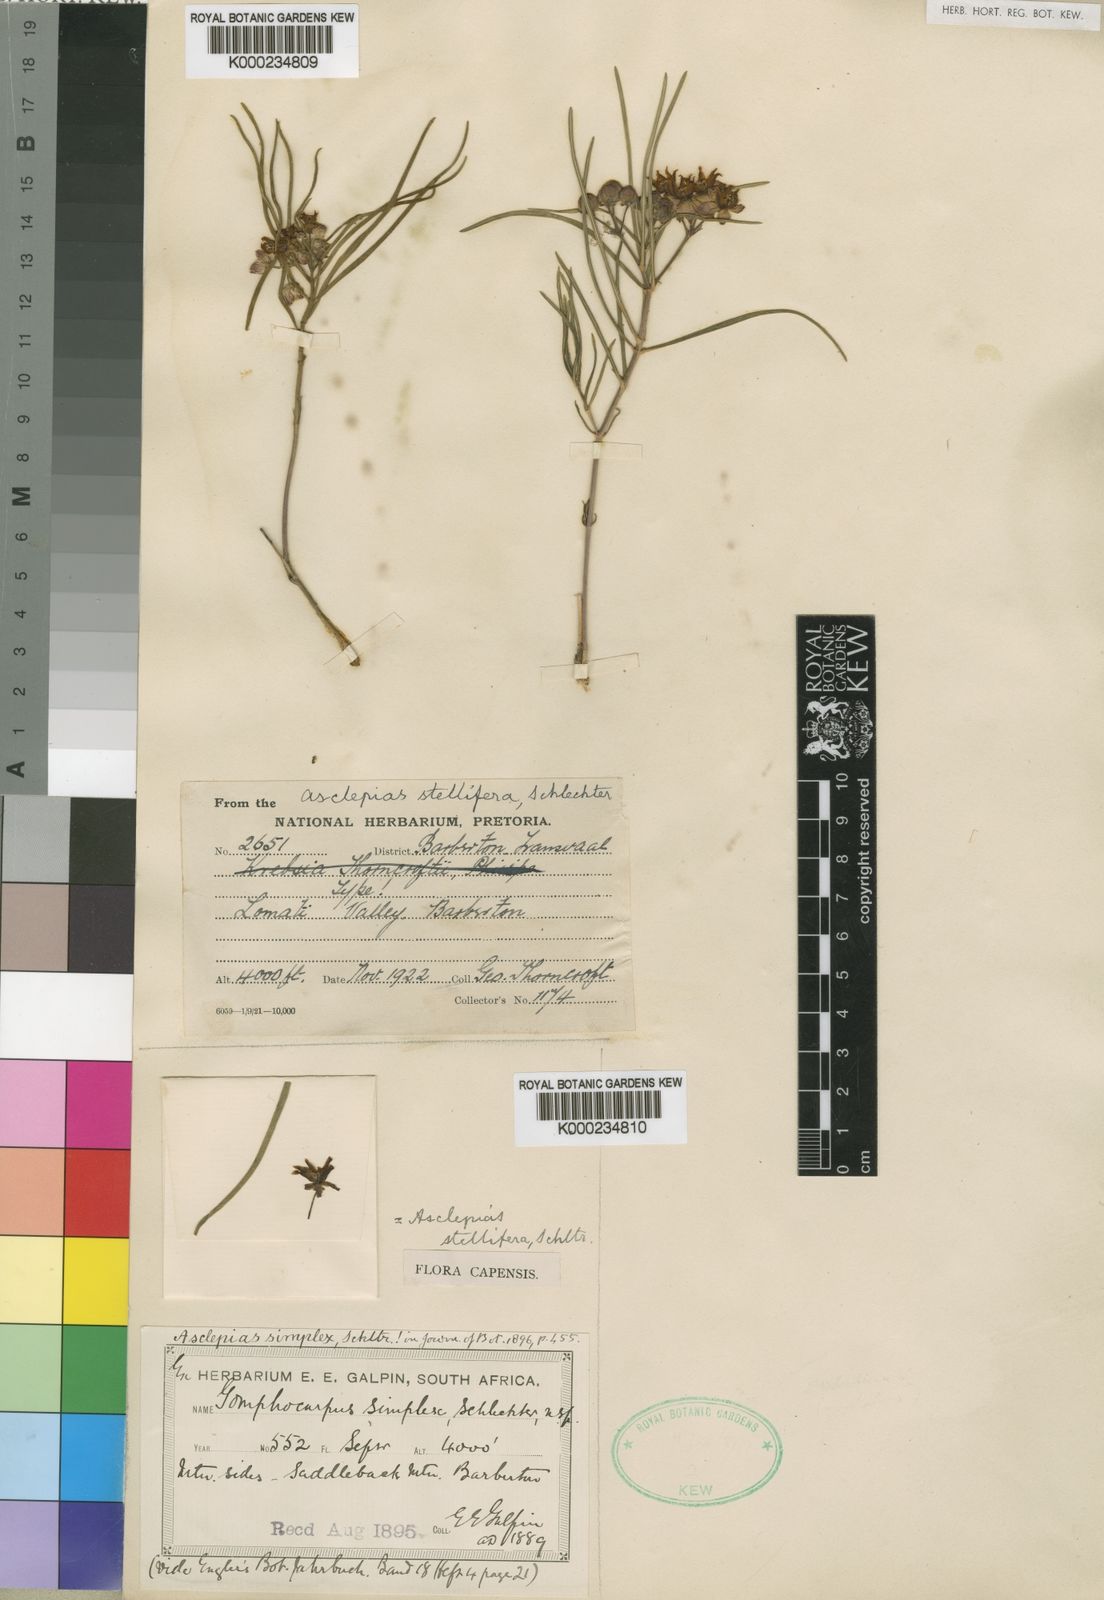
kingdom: Plantae
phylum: Tracheophyta
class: Magnoliopsida
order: Gentianales
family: Apocynaceae
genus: Asclepias
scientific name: Asclepias stellifera
